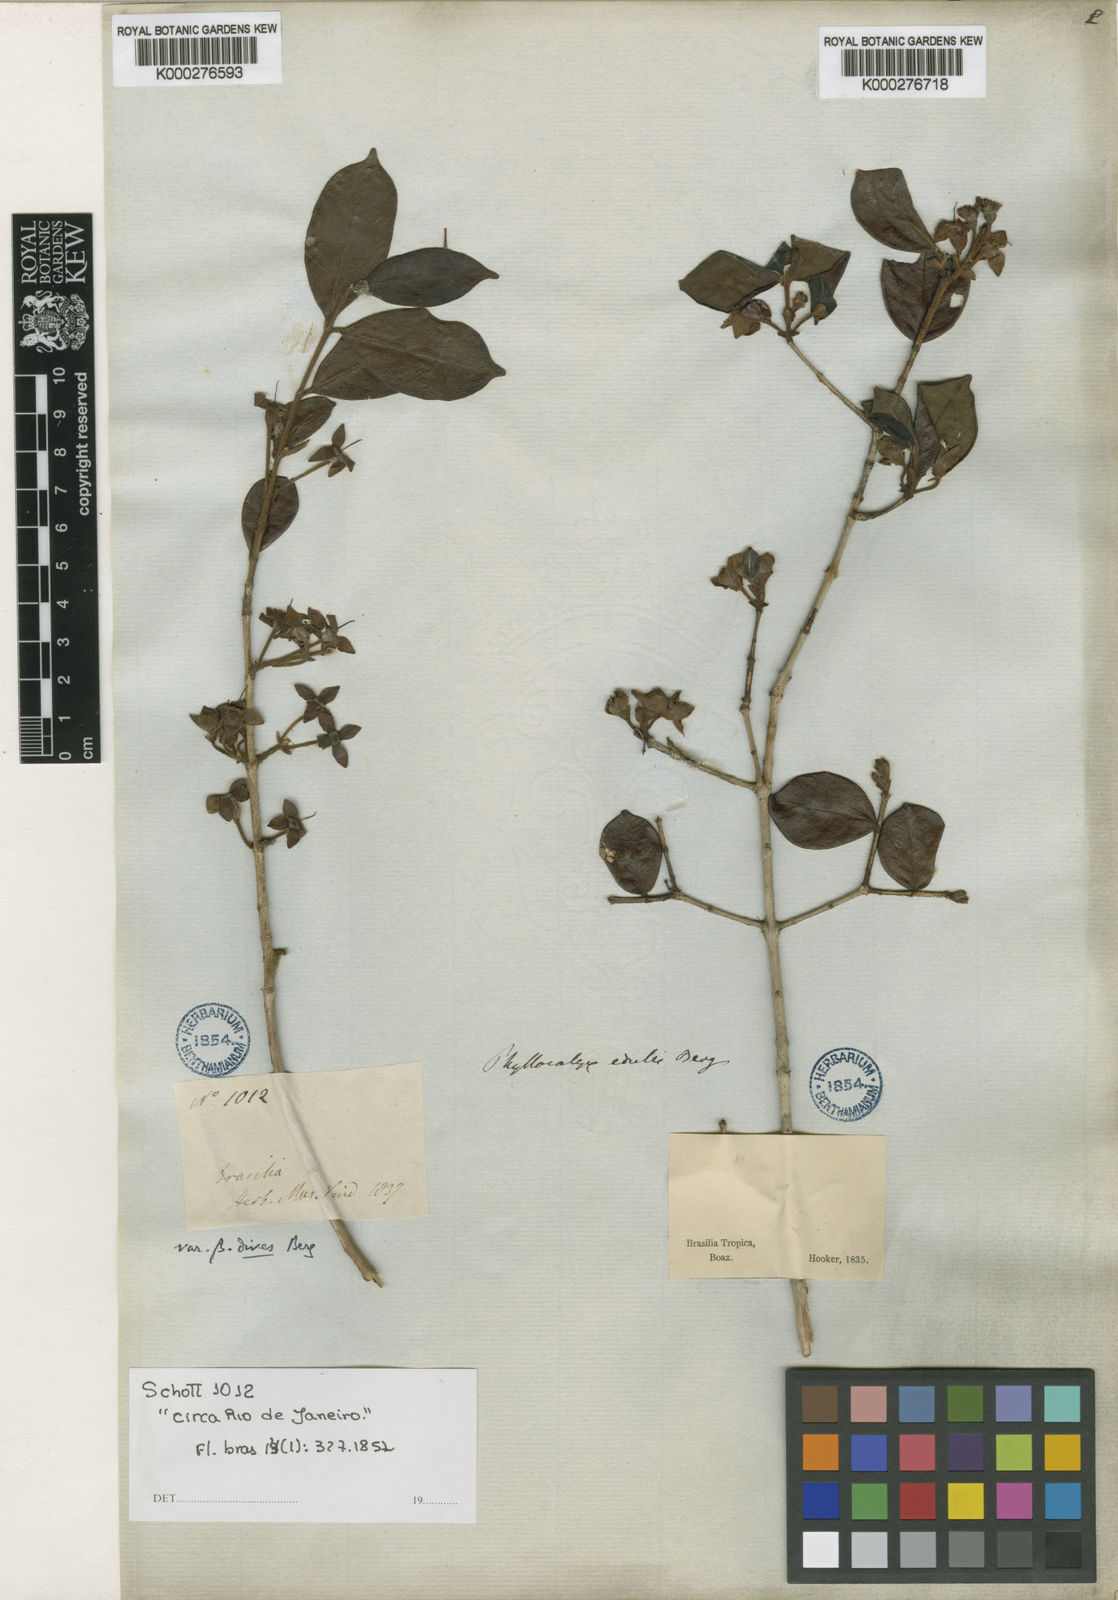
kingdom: Plantae
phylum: Tracheophyta
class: Magnoliopsida
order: Myrtales
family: Myrtaceae
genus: Eugenia
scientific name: Eugenia selloi
